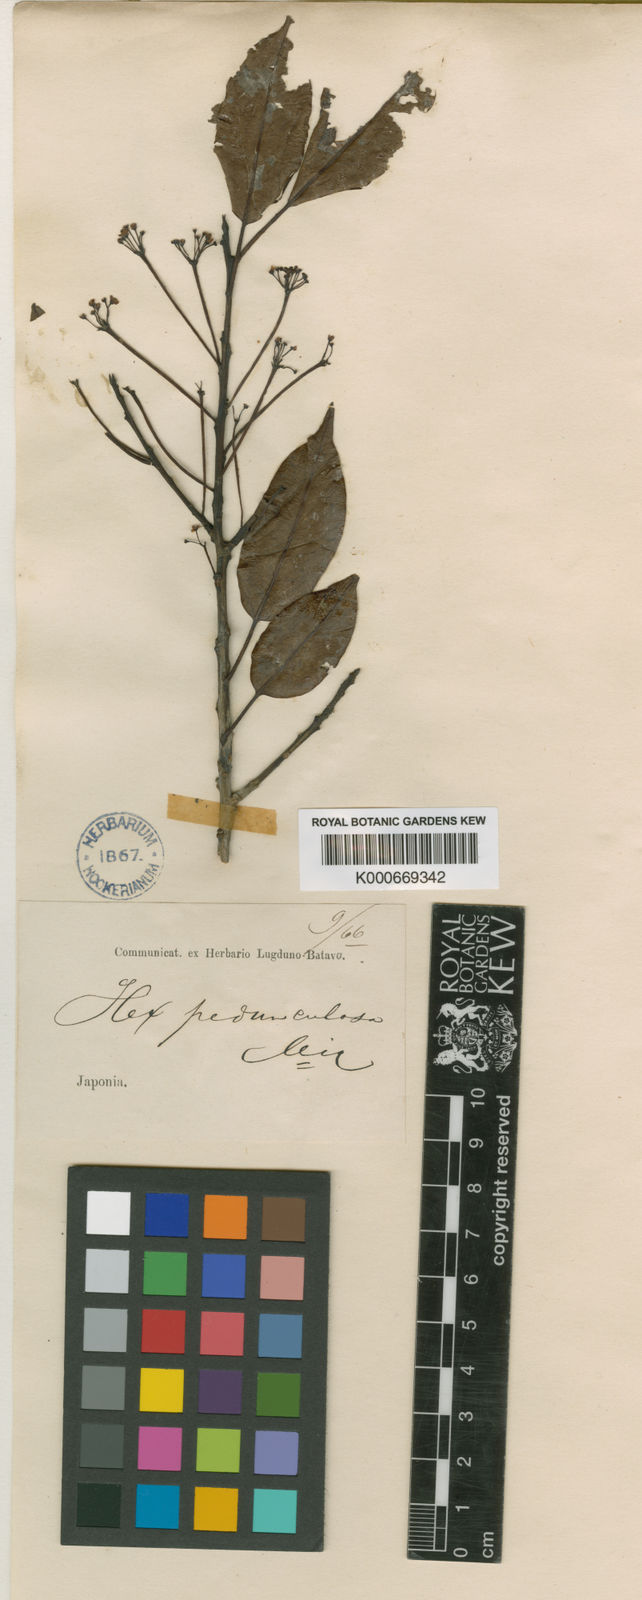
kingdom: Plantae
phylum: Tracheophyta
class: Magnoliopsida
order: Aquifoliales
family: Aquifoliaceae
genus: Ilex
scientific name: Ilex pedunculosa
